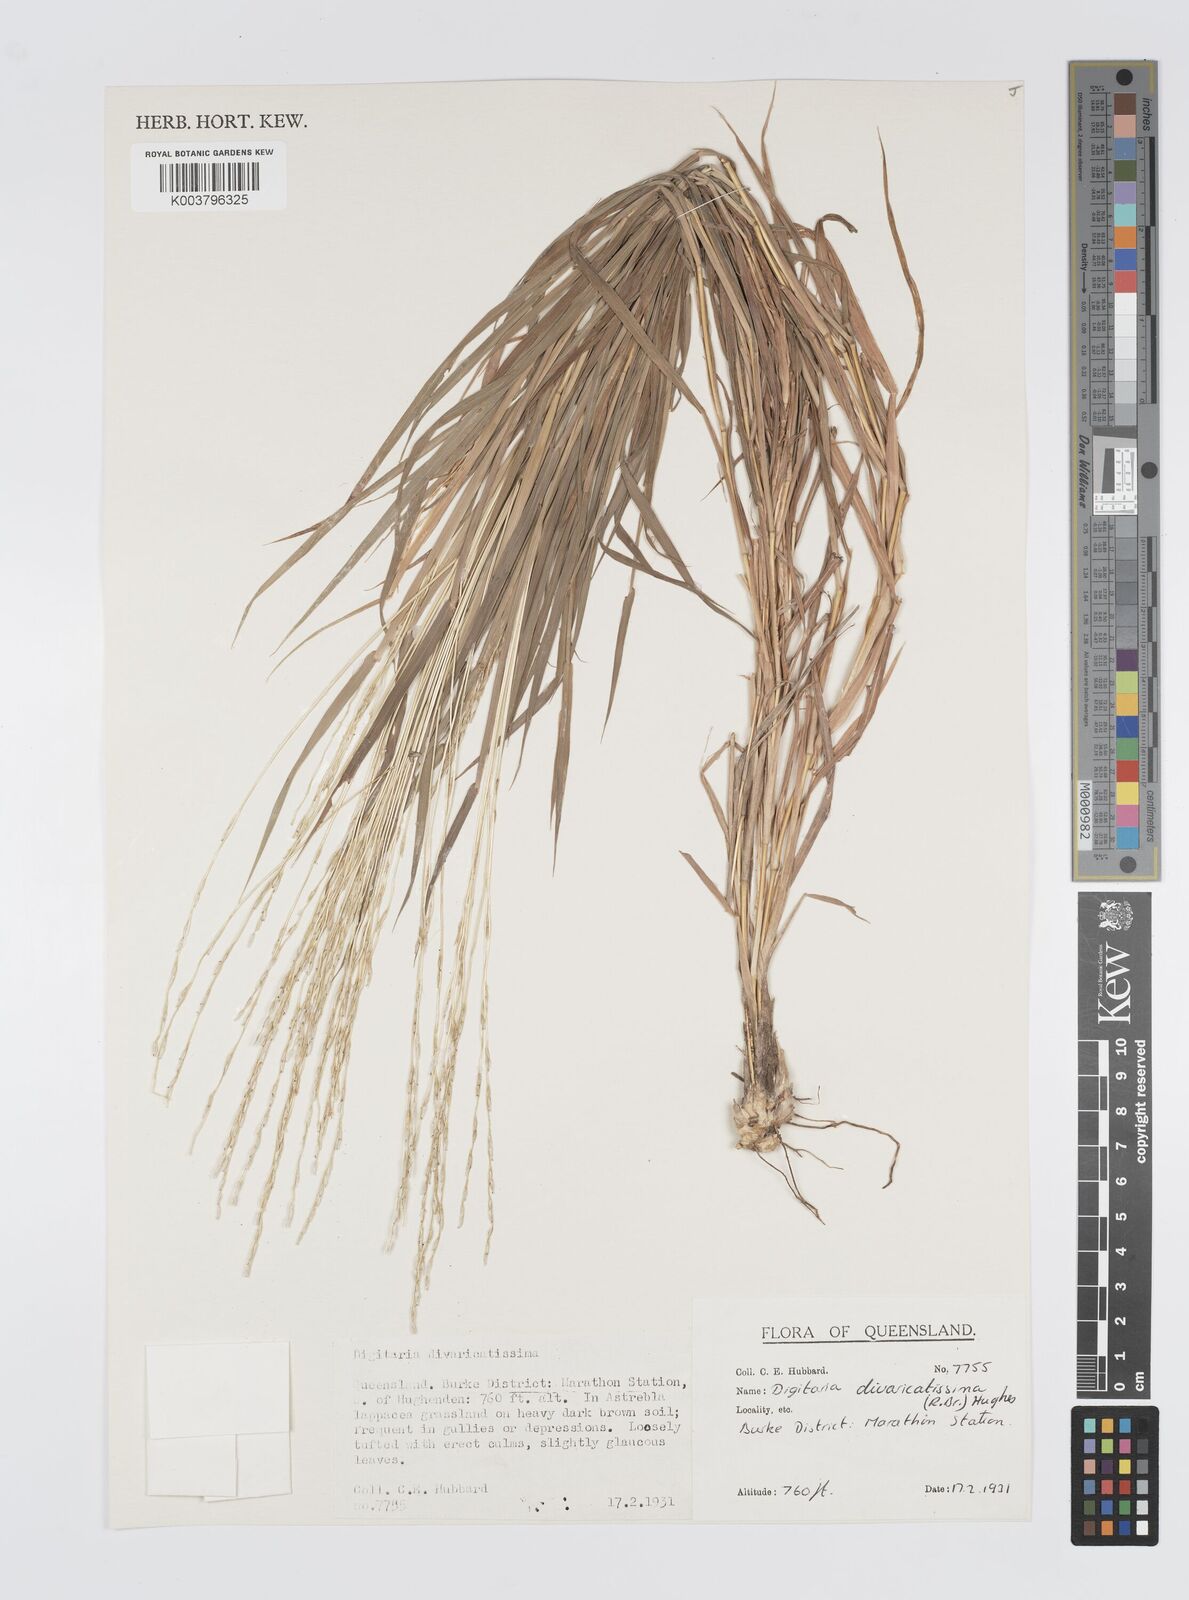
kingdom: Plantae
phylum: Tracheophyta
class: Liliopsida
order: Poales
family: Poaceae
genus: Digitaria
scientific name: Digitaria divaricatissima
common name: Crabgrass
